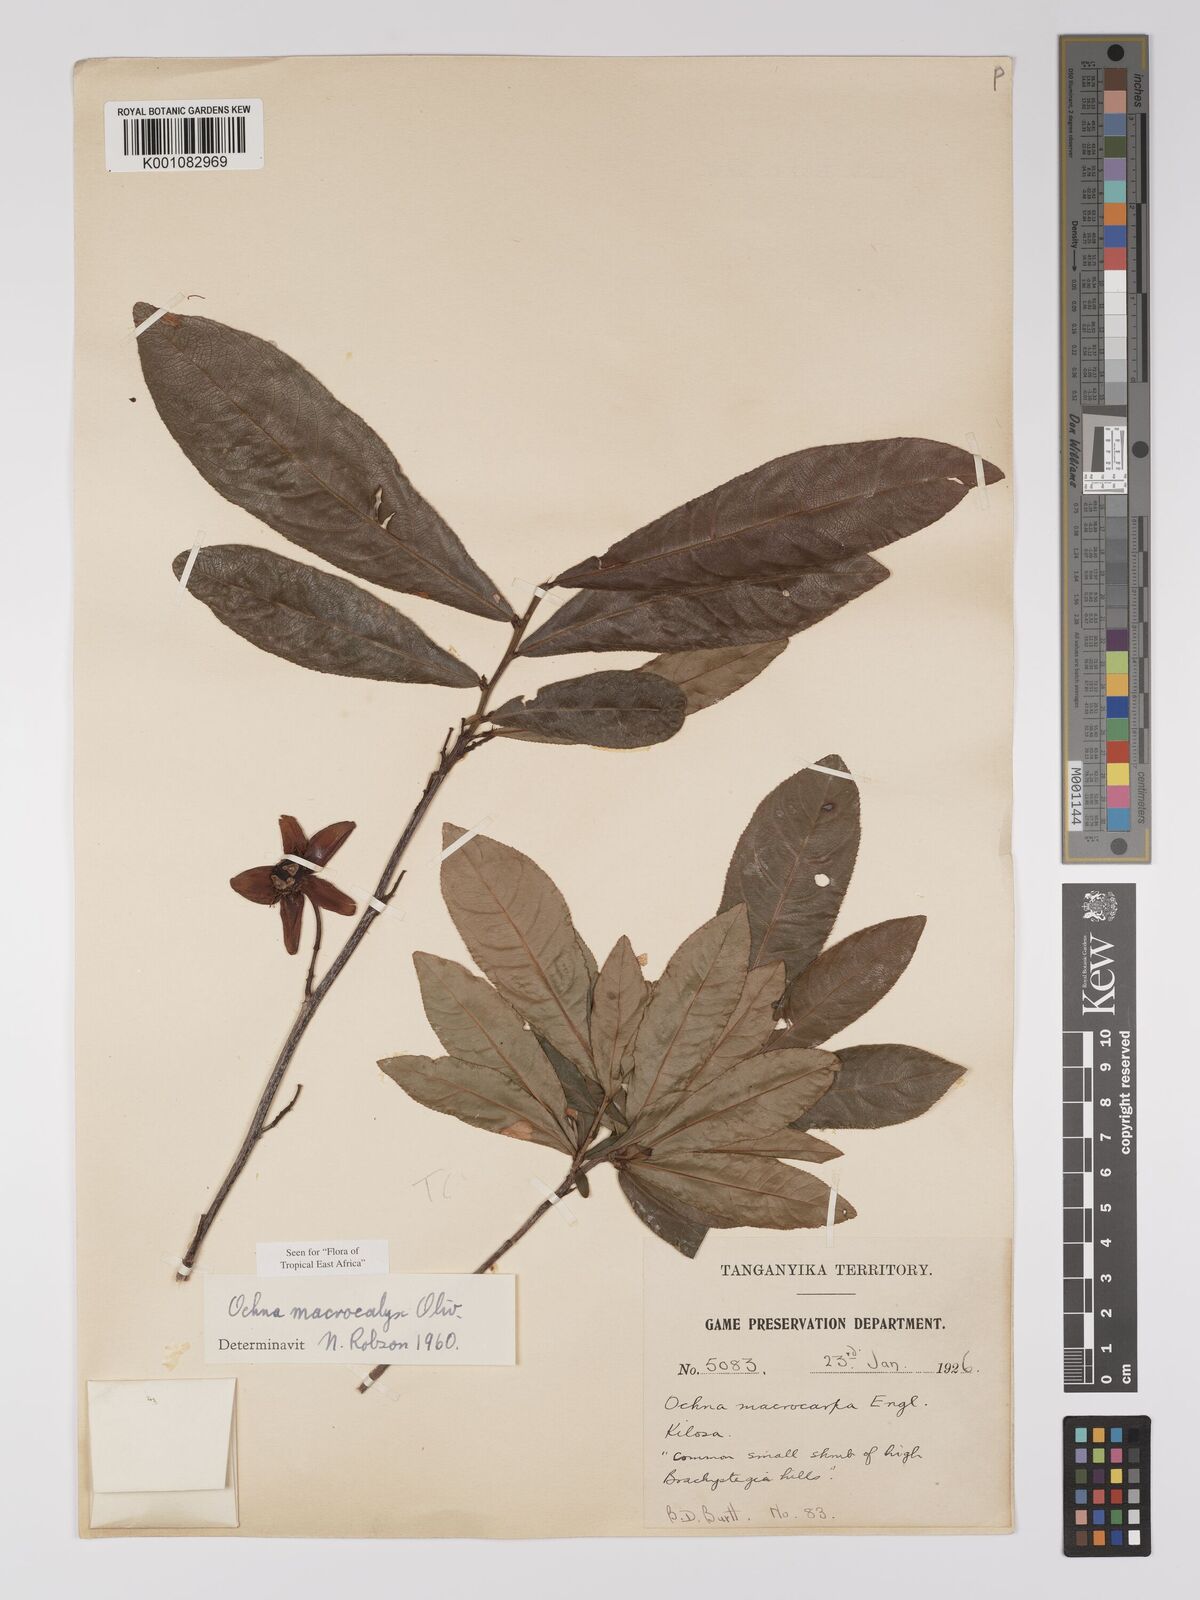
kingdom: Plantae
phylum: Tracheophyta
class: Magnoliopsida
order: Malpighiales
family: Ochnaceae
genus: Ochna
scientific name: Ochna macrocalyx
